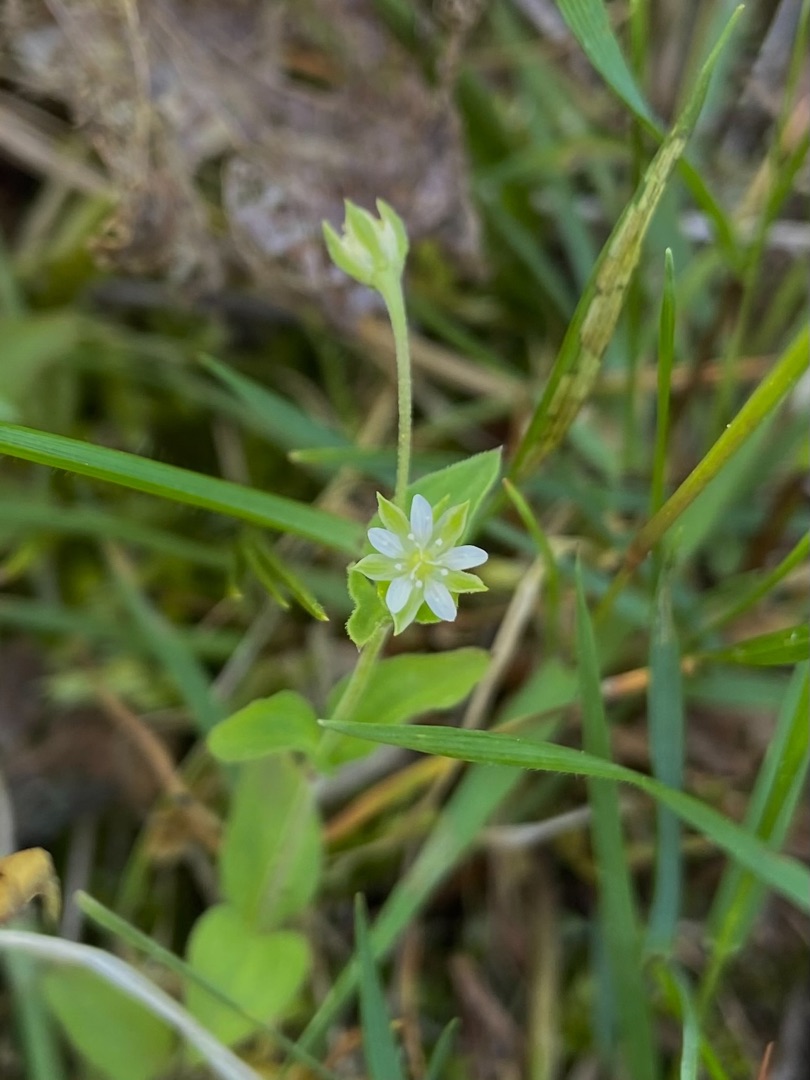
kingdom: Plantae
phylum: Tracheophyta
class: Magnoliopsida
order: Caryophyllales
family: Caryophyllaceae
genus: Moehringia
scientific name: Moehringia trinervia
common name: Skovarve
